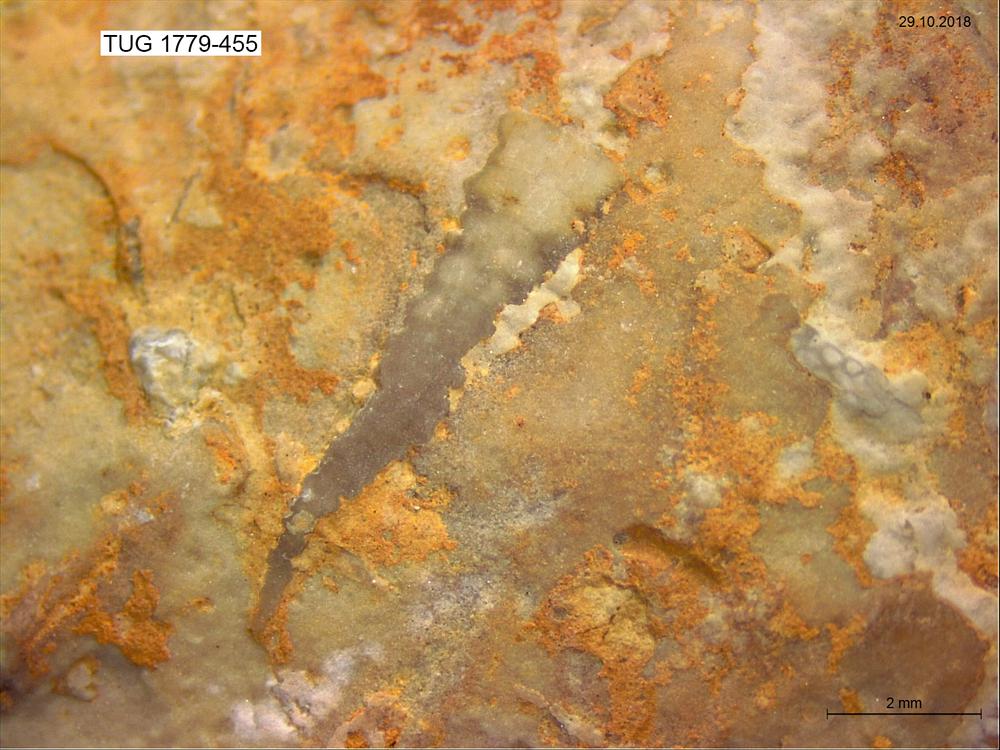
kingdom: Animalia
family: Cornulitidae
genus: Cornulites
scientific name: Cornulites
